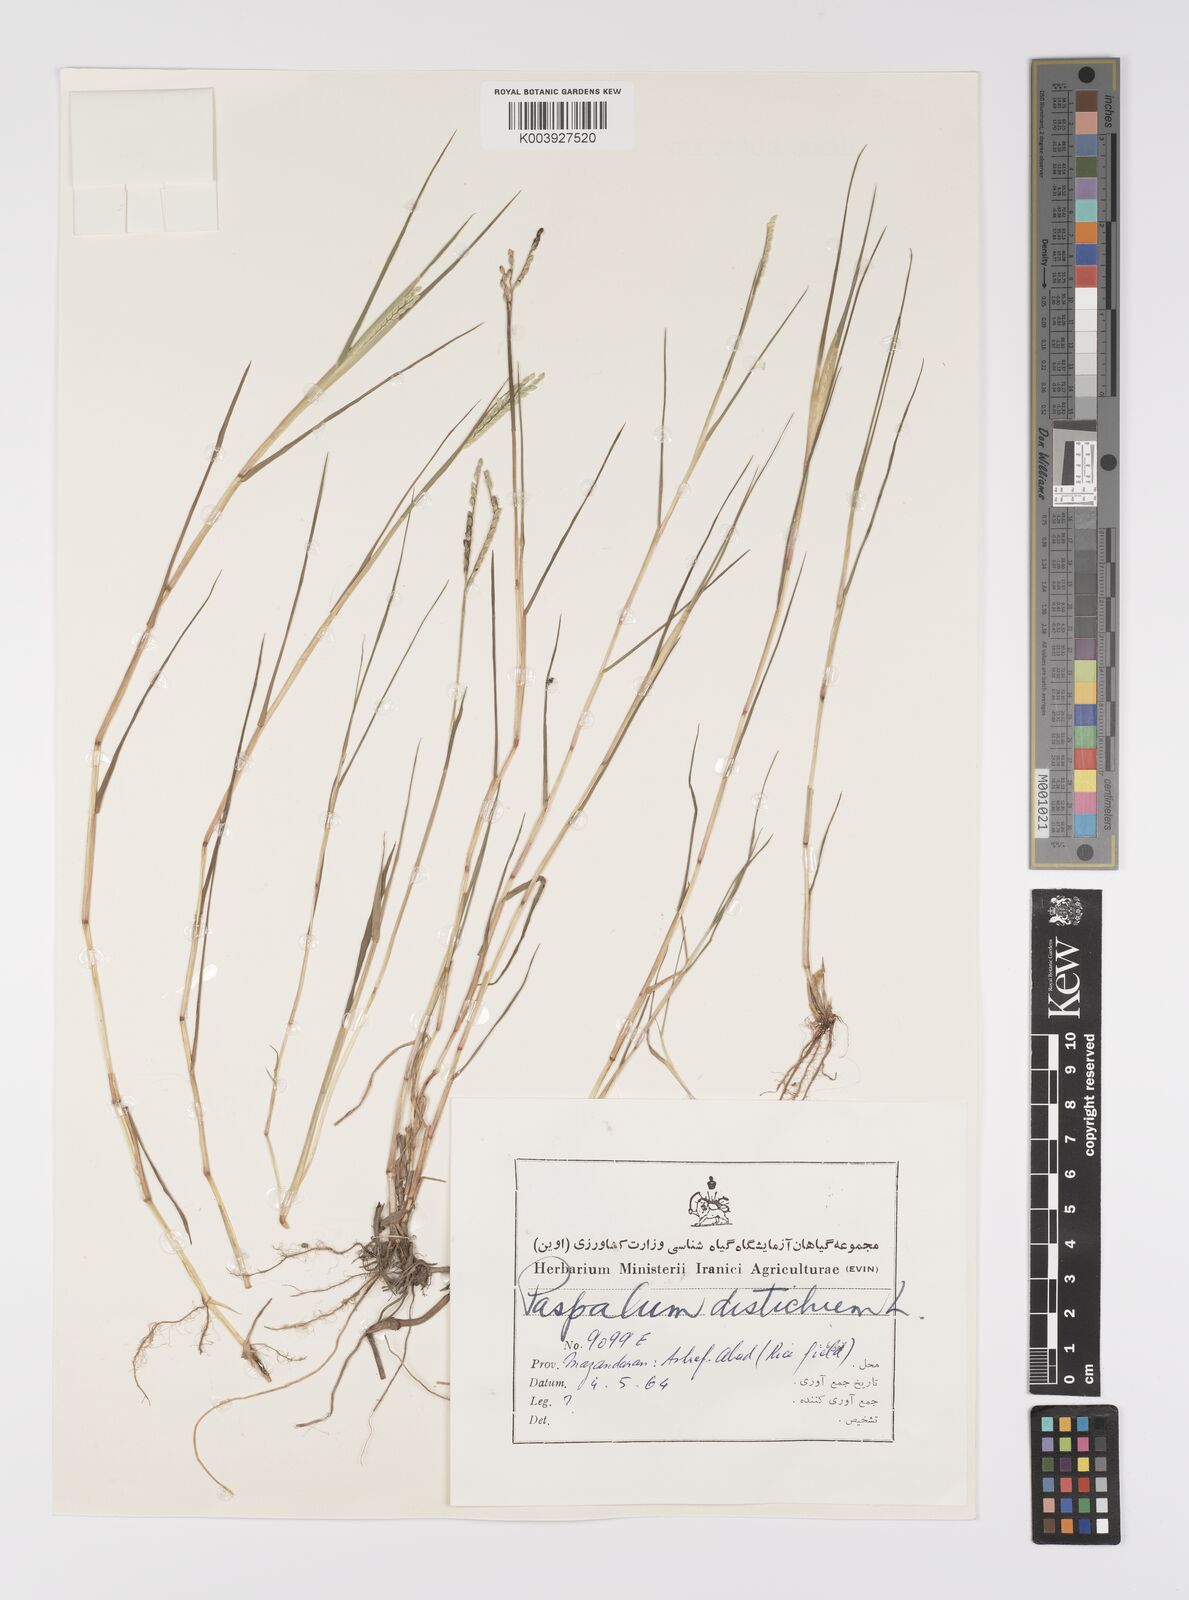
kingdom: Plantae
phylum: Tracheophyta
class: Liliopsida
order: Poales
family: Poaceae
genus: Paspalum
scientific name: Paspalum distichum
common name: Knotgrass
